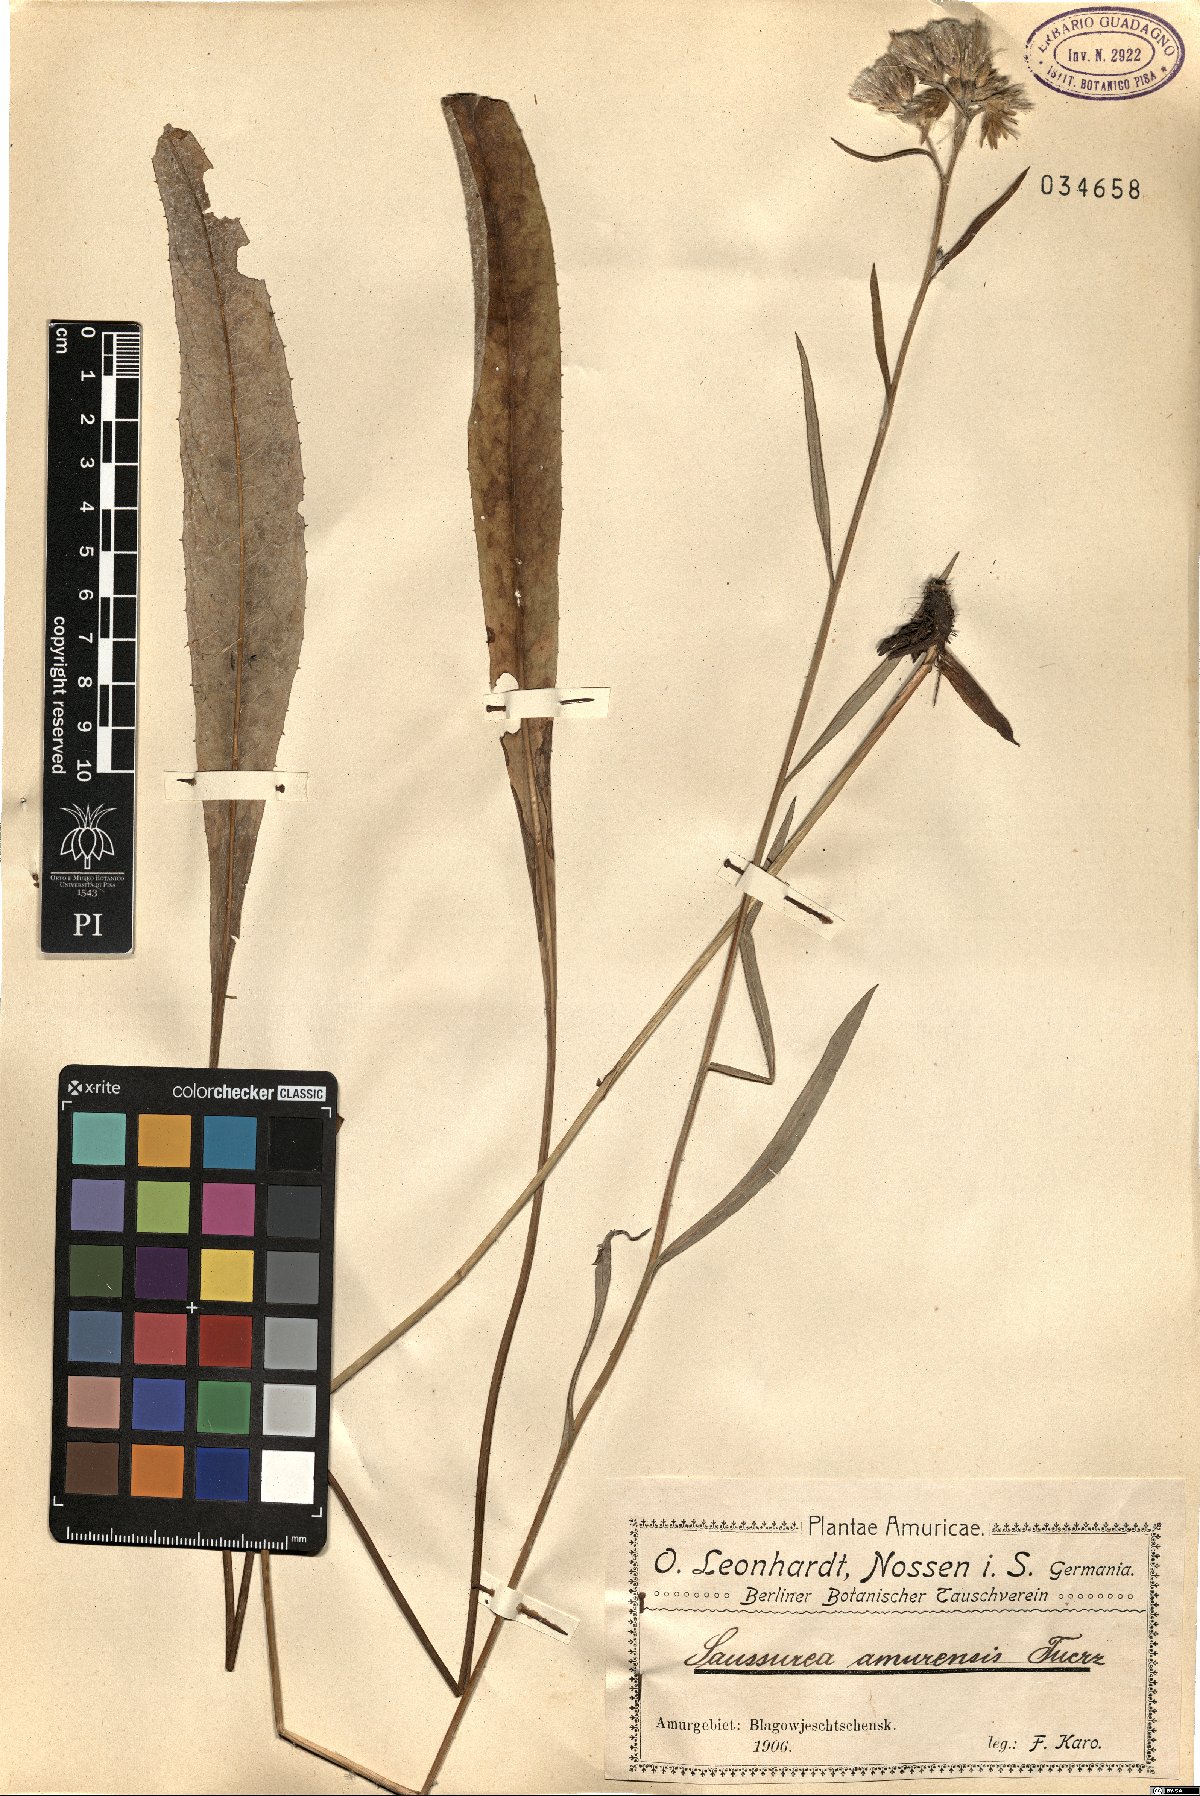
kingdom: Plantae
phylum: Tracheophyta
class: Magnoliopsida
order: Asterales
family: Asteraceae
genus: Saussurea
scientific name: Saussurea amurensis
